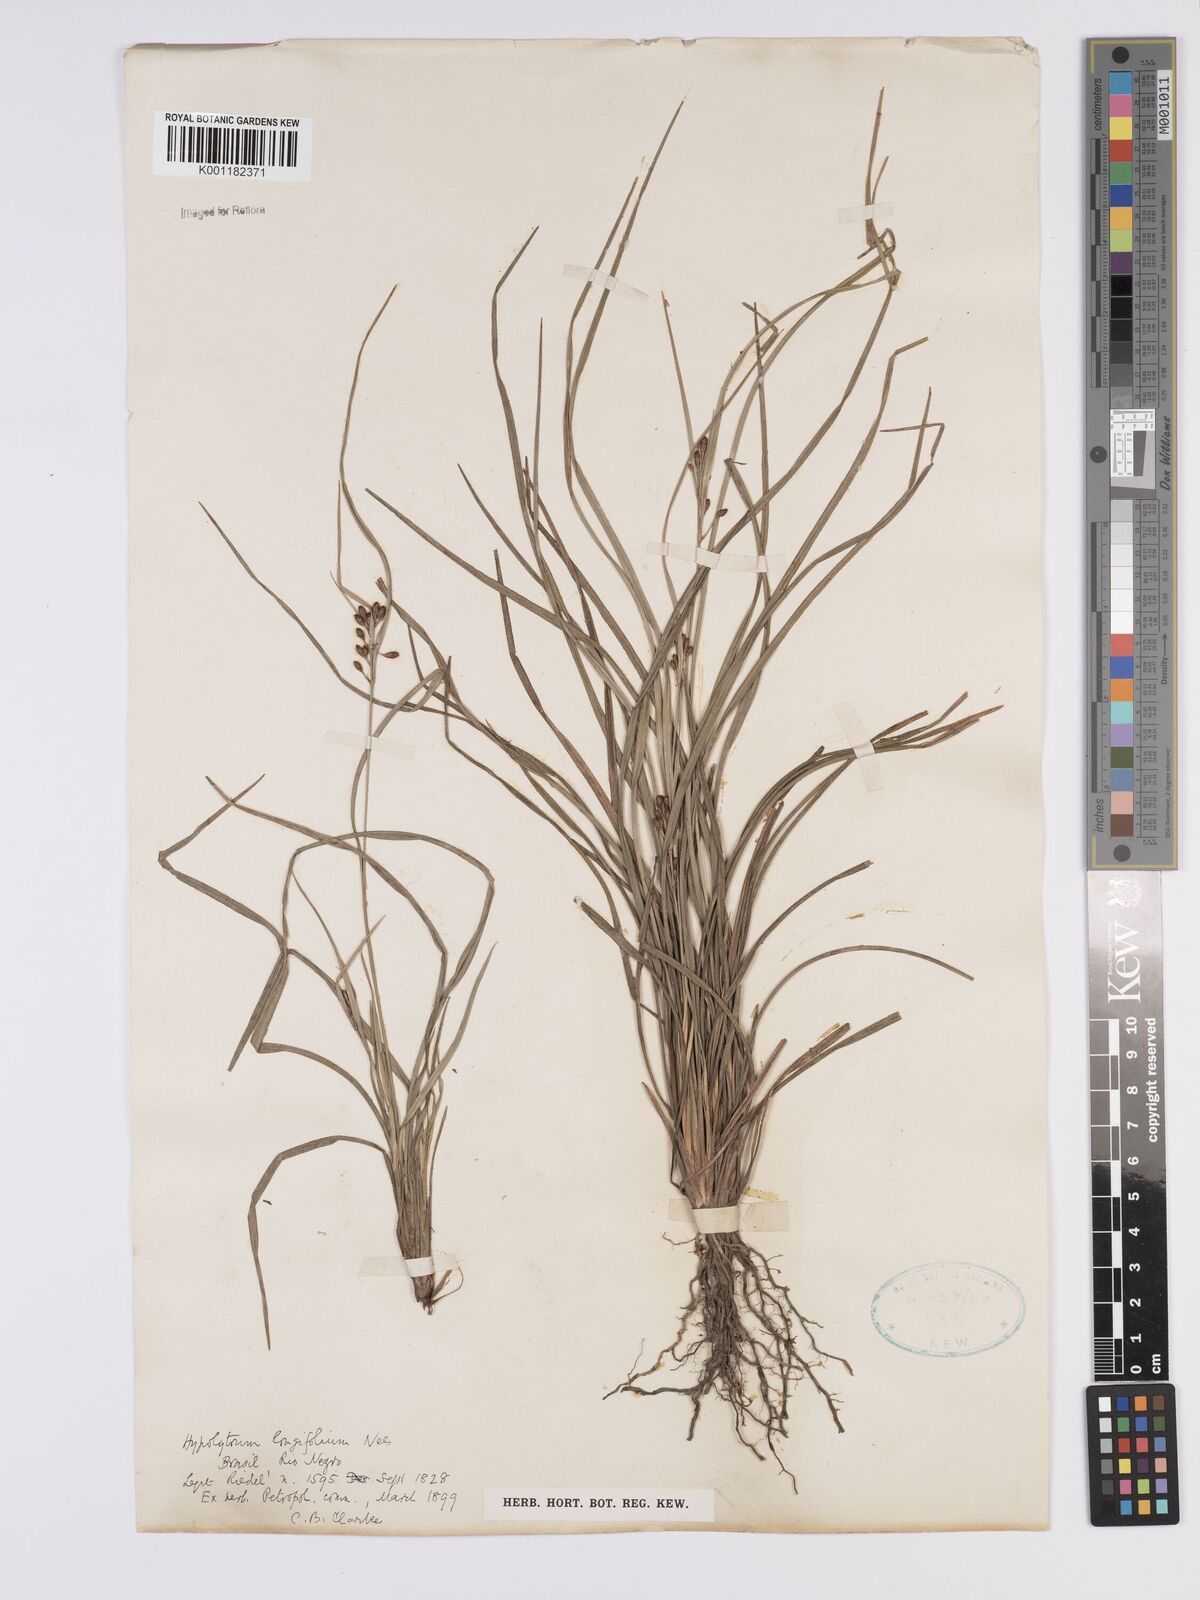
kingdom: Plantae
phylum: Tracheophyta
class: Liliopsida
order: Poales
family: Cyperaceae
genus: Hypolytrum
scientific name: Hypolytrum longifolium
